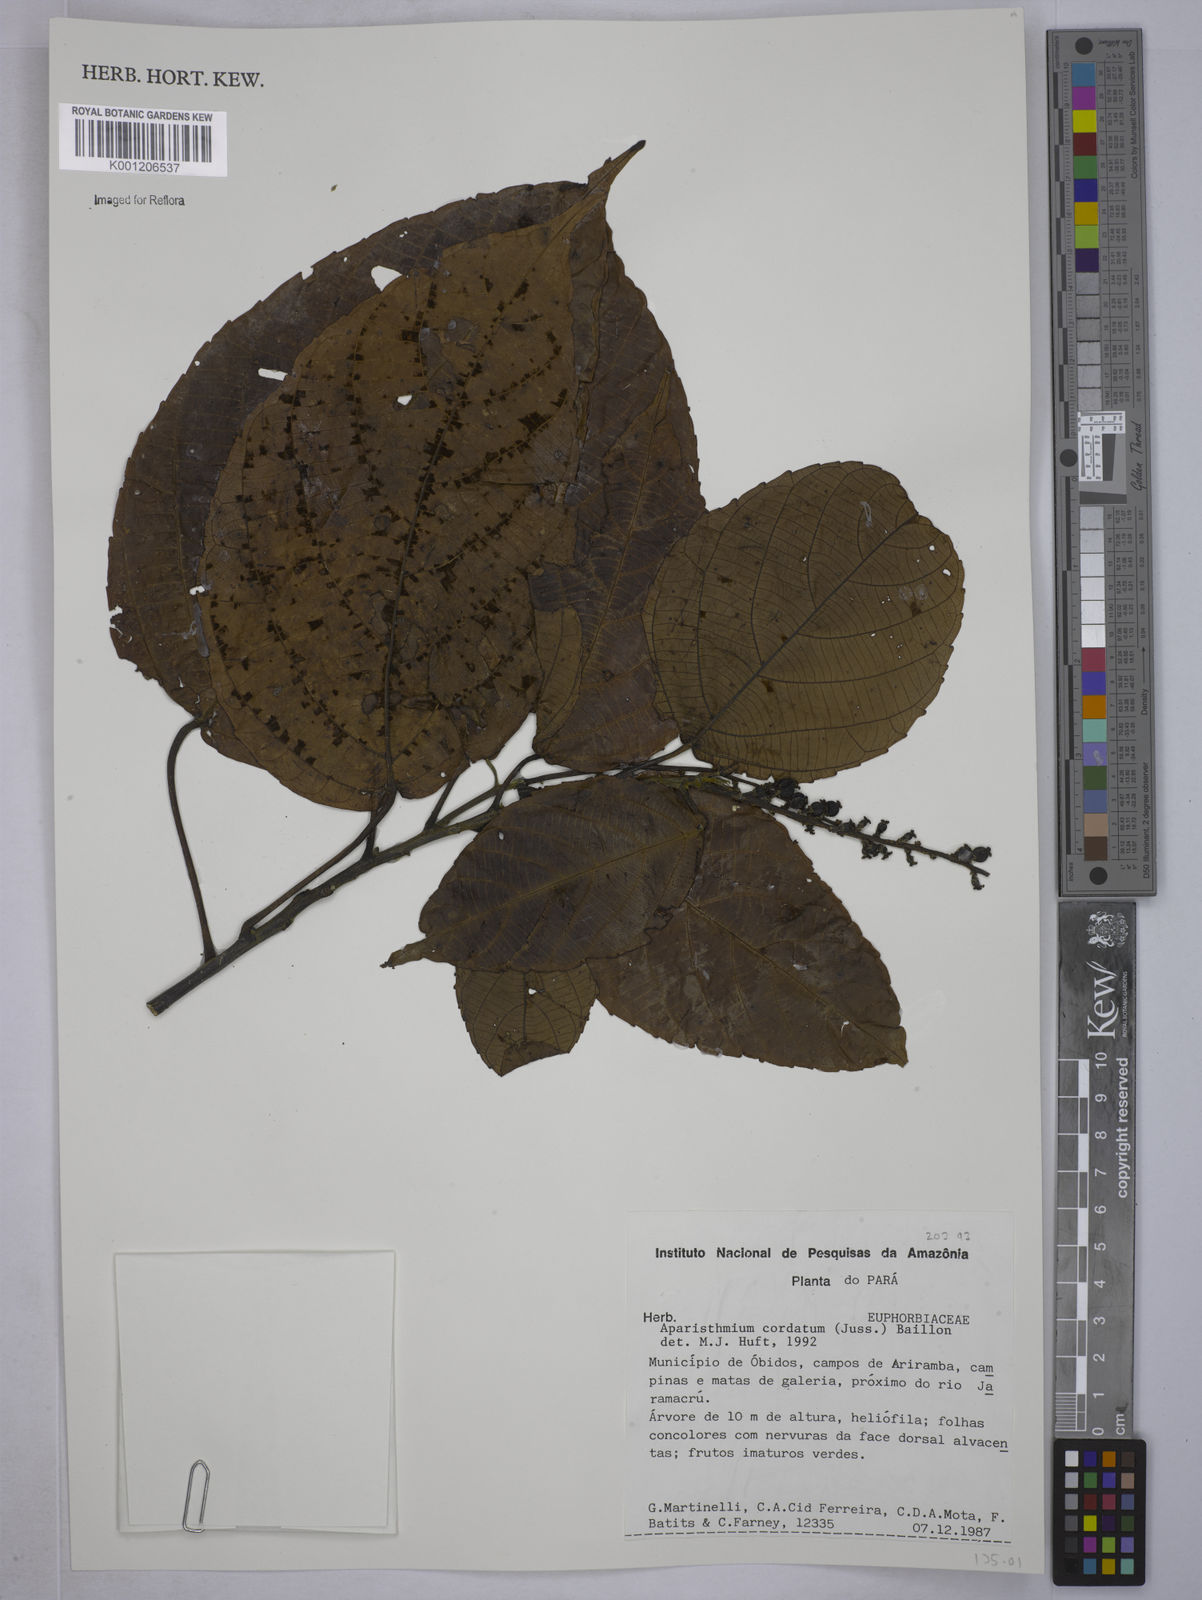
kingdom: Plantae
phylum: Tracheophyta
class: Magnoliopsida
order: Malpighiales
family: Euphorbiaceae
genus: Aparisthmium
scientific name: Aparisthmium cordatum
